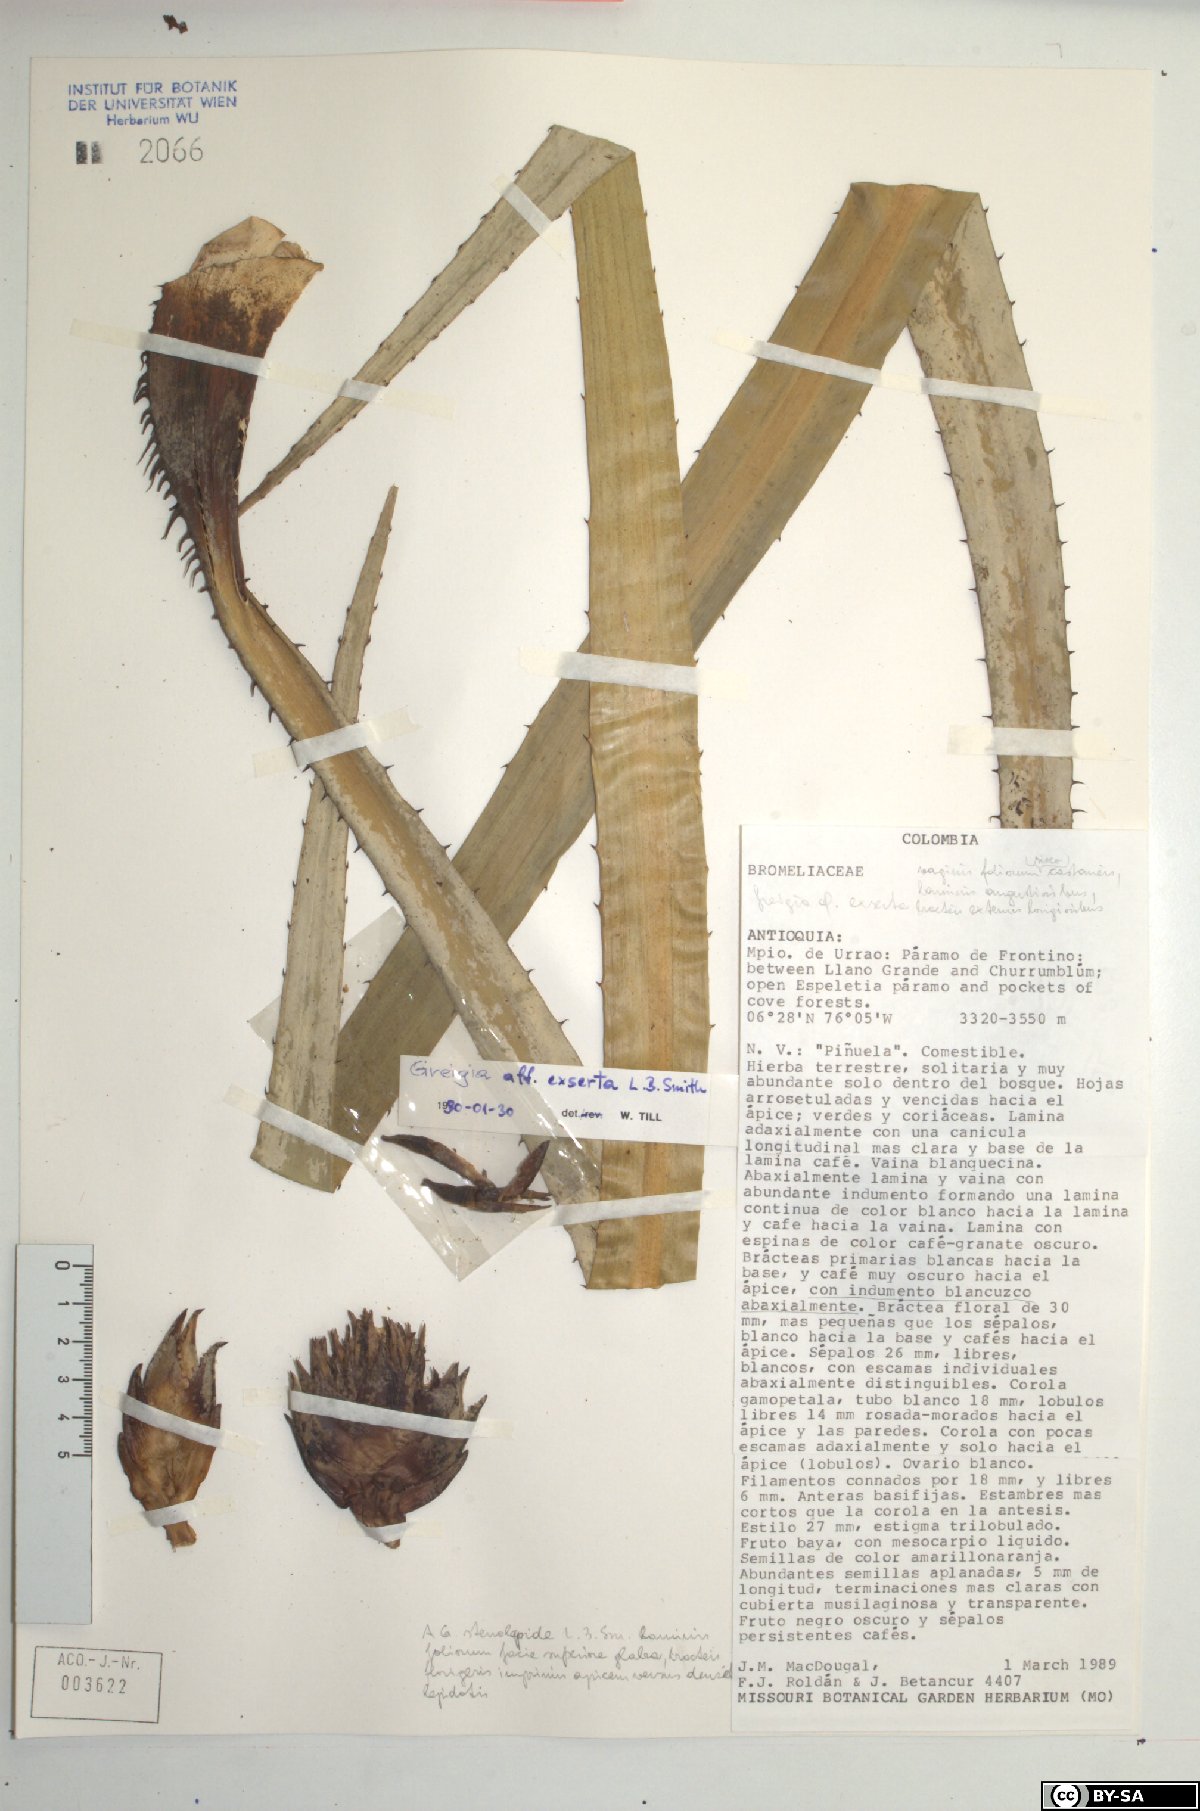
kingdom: Plantae
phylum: Tracheophyta
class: Liliopsida
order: Poales
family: Bromeliaceae
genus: Greigia
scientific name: Greigia exserta
